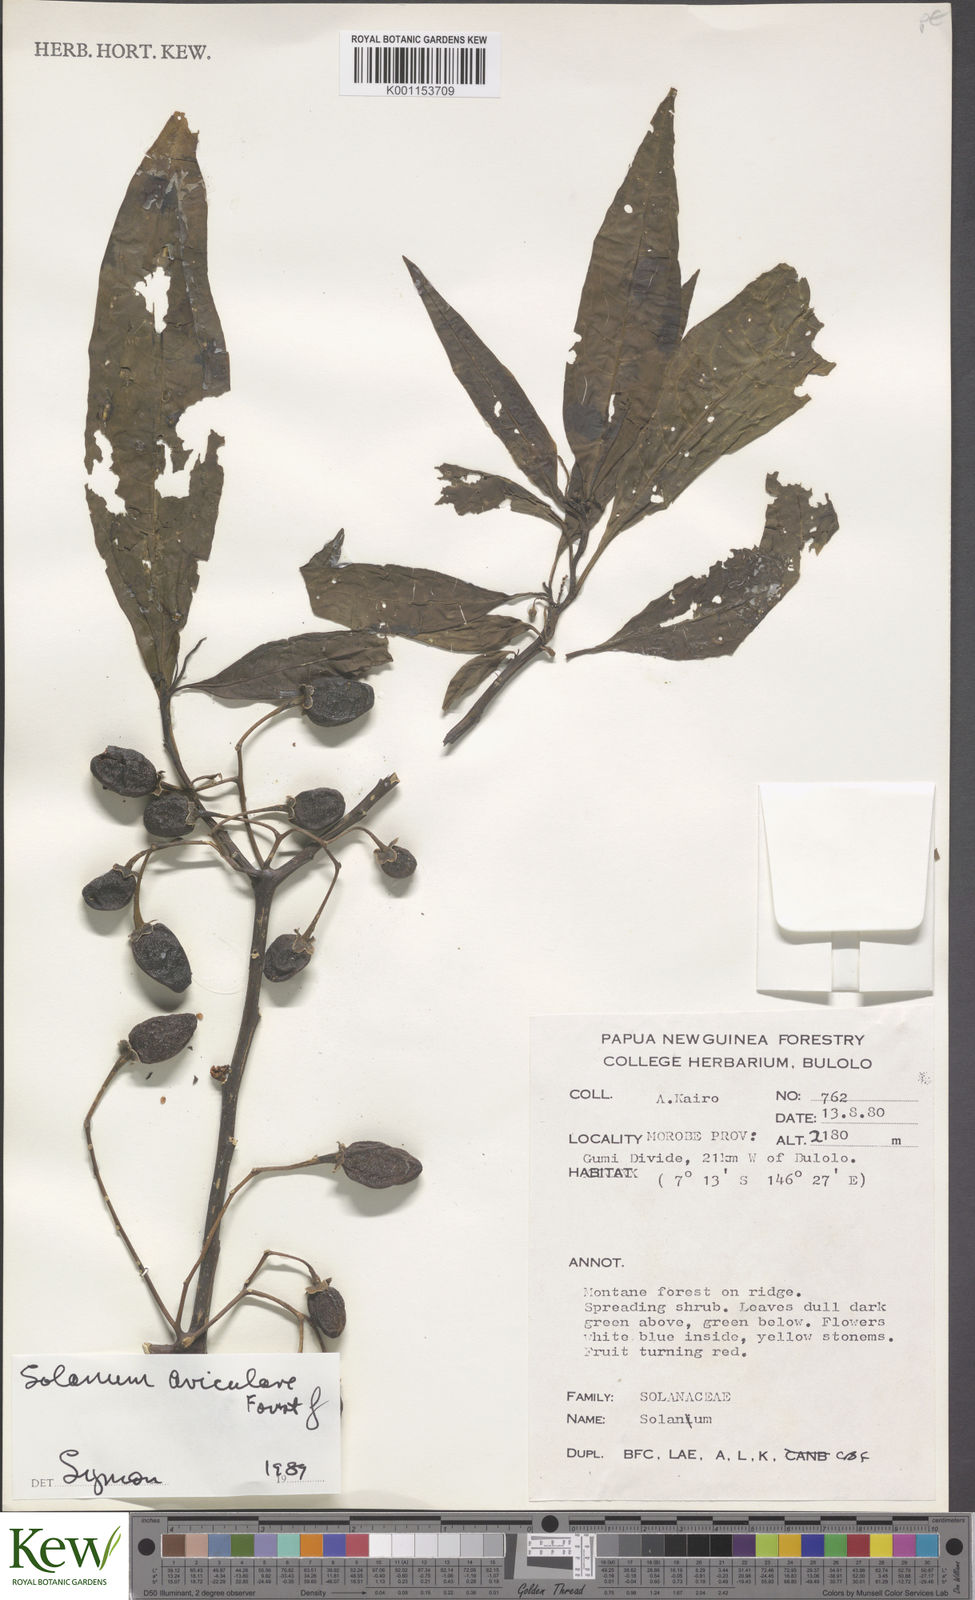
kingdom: Plantae
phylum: Tracheophyta
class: Magnoliopsida
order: Solanales
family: Solanaceae
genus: Solanum
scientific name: Solanum aviculare
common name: New zealand nightshade
